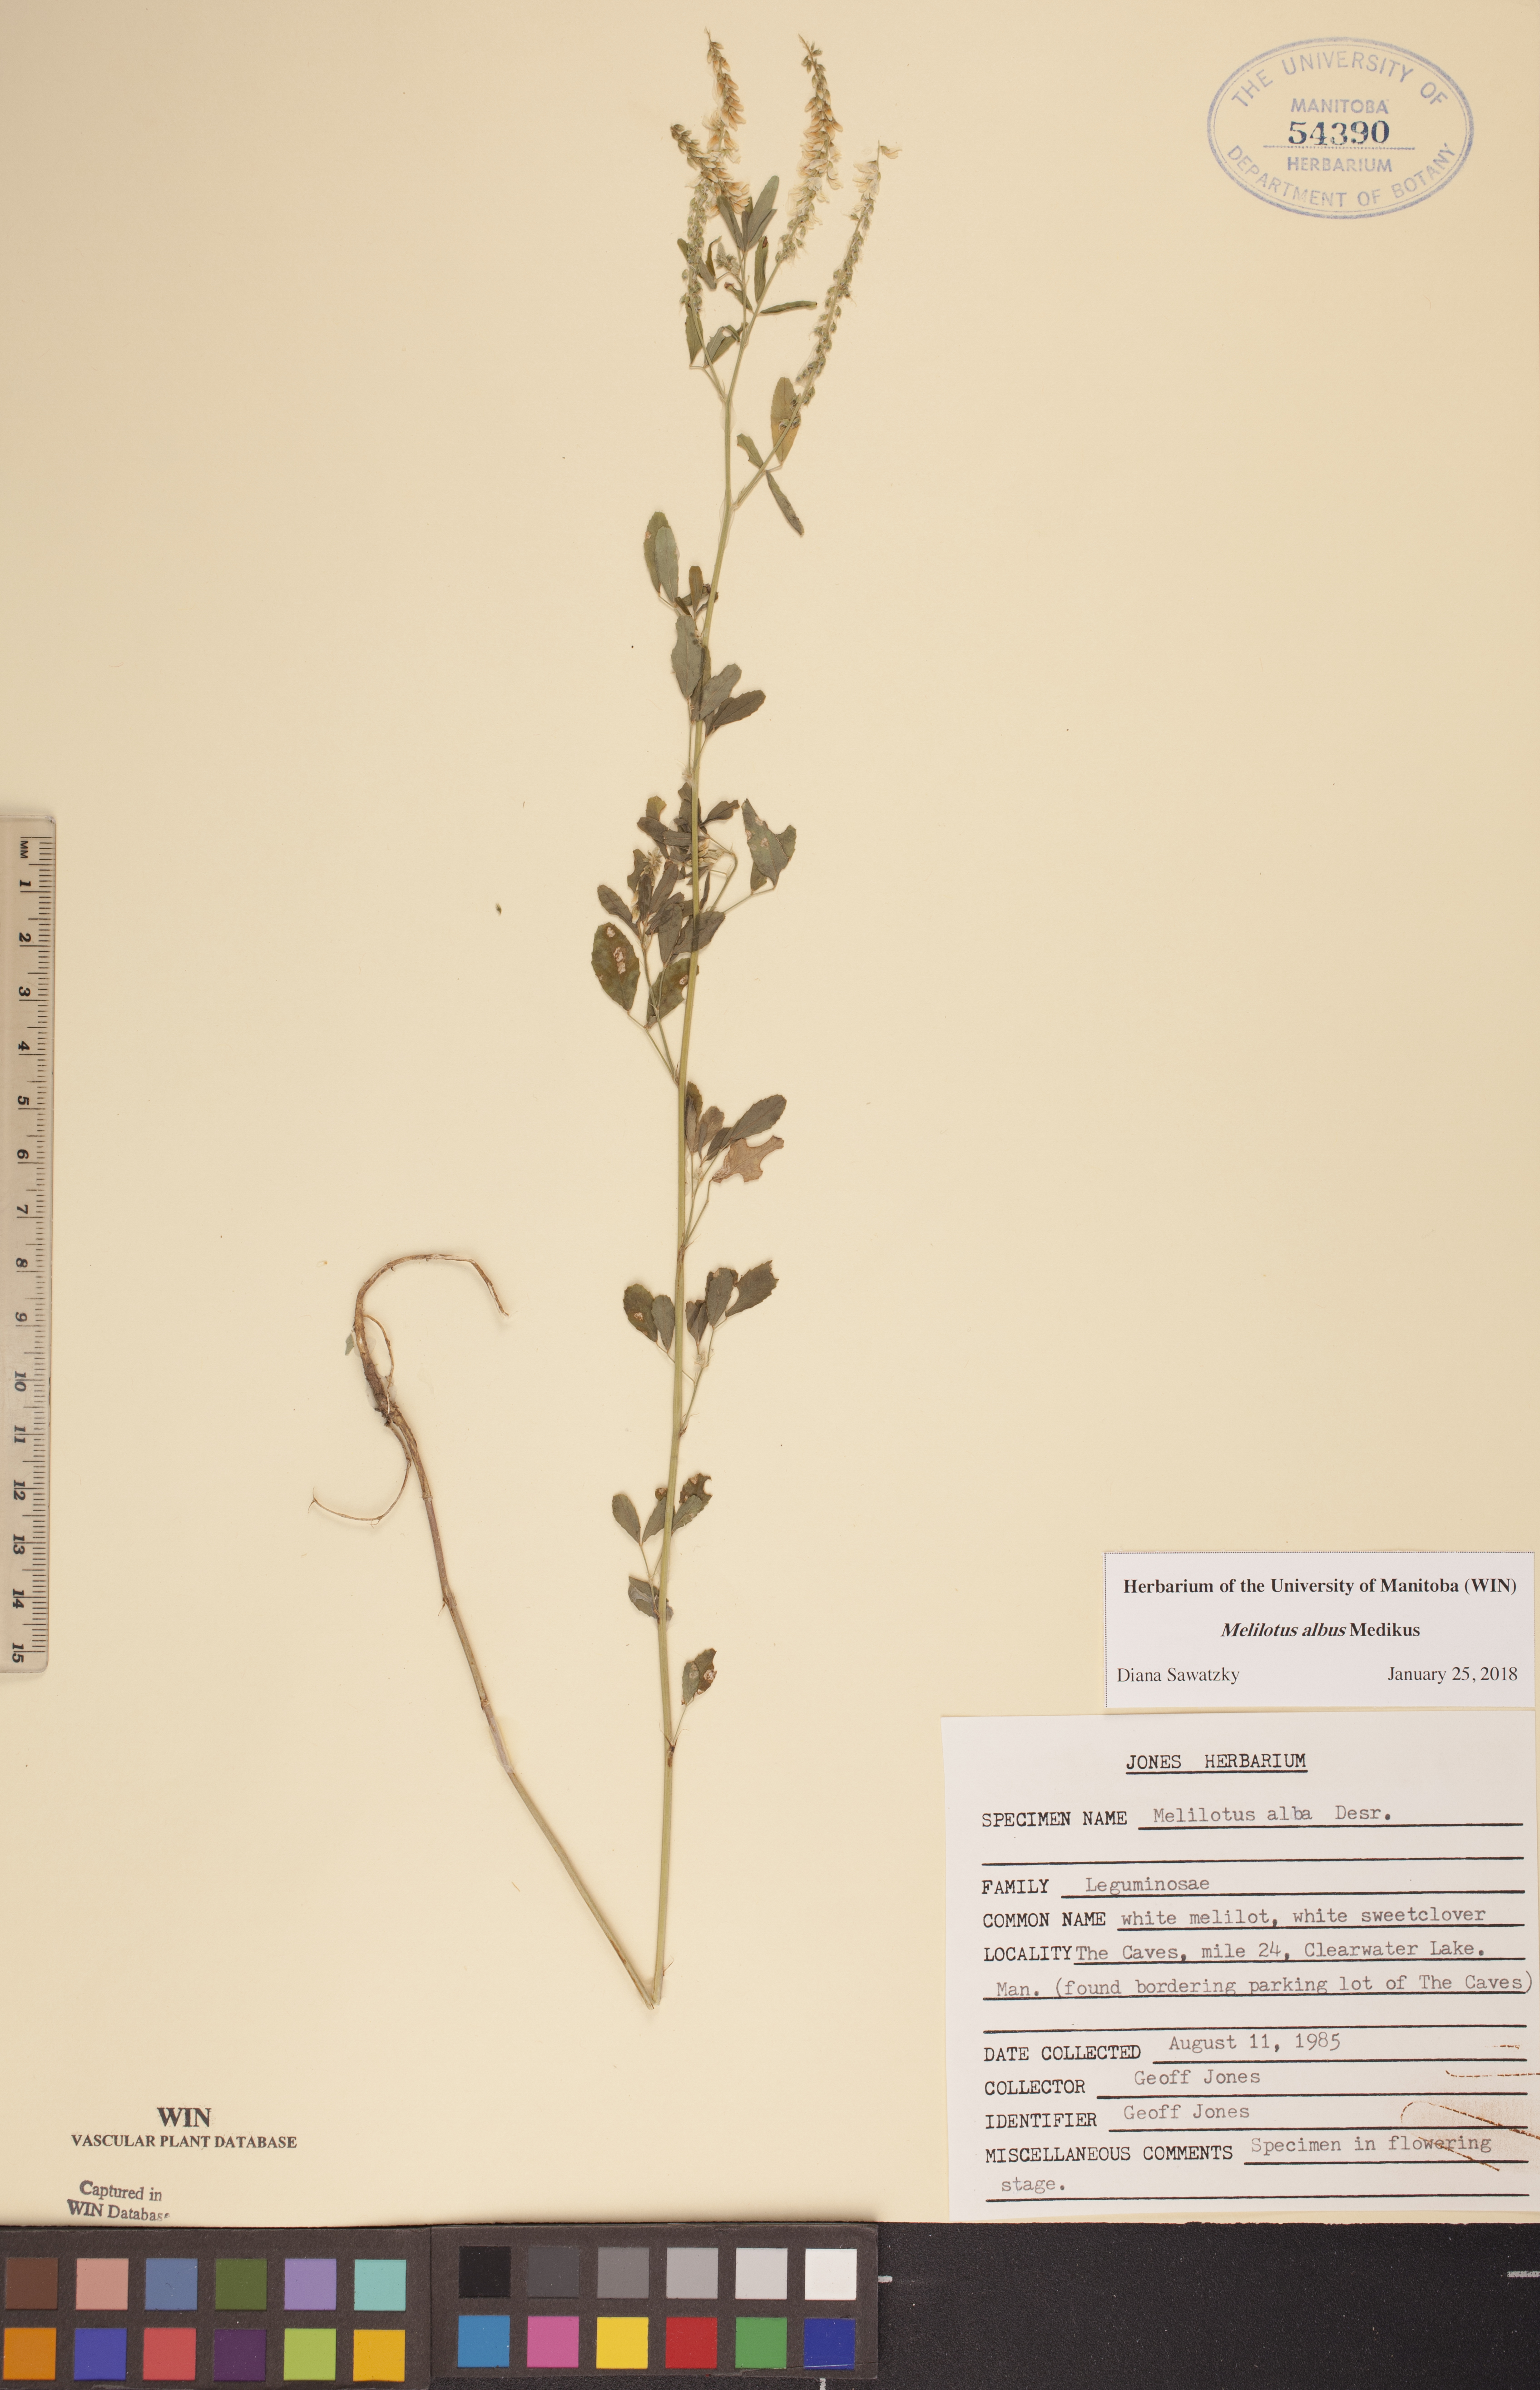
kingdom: Plantae
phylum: Tracheophyta
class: Magnoliopsida
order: Fabales
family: Fabaceae
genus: Melilotus
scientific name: Melilotus albus
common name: White melilot
